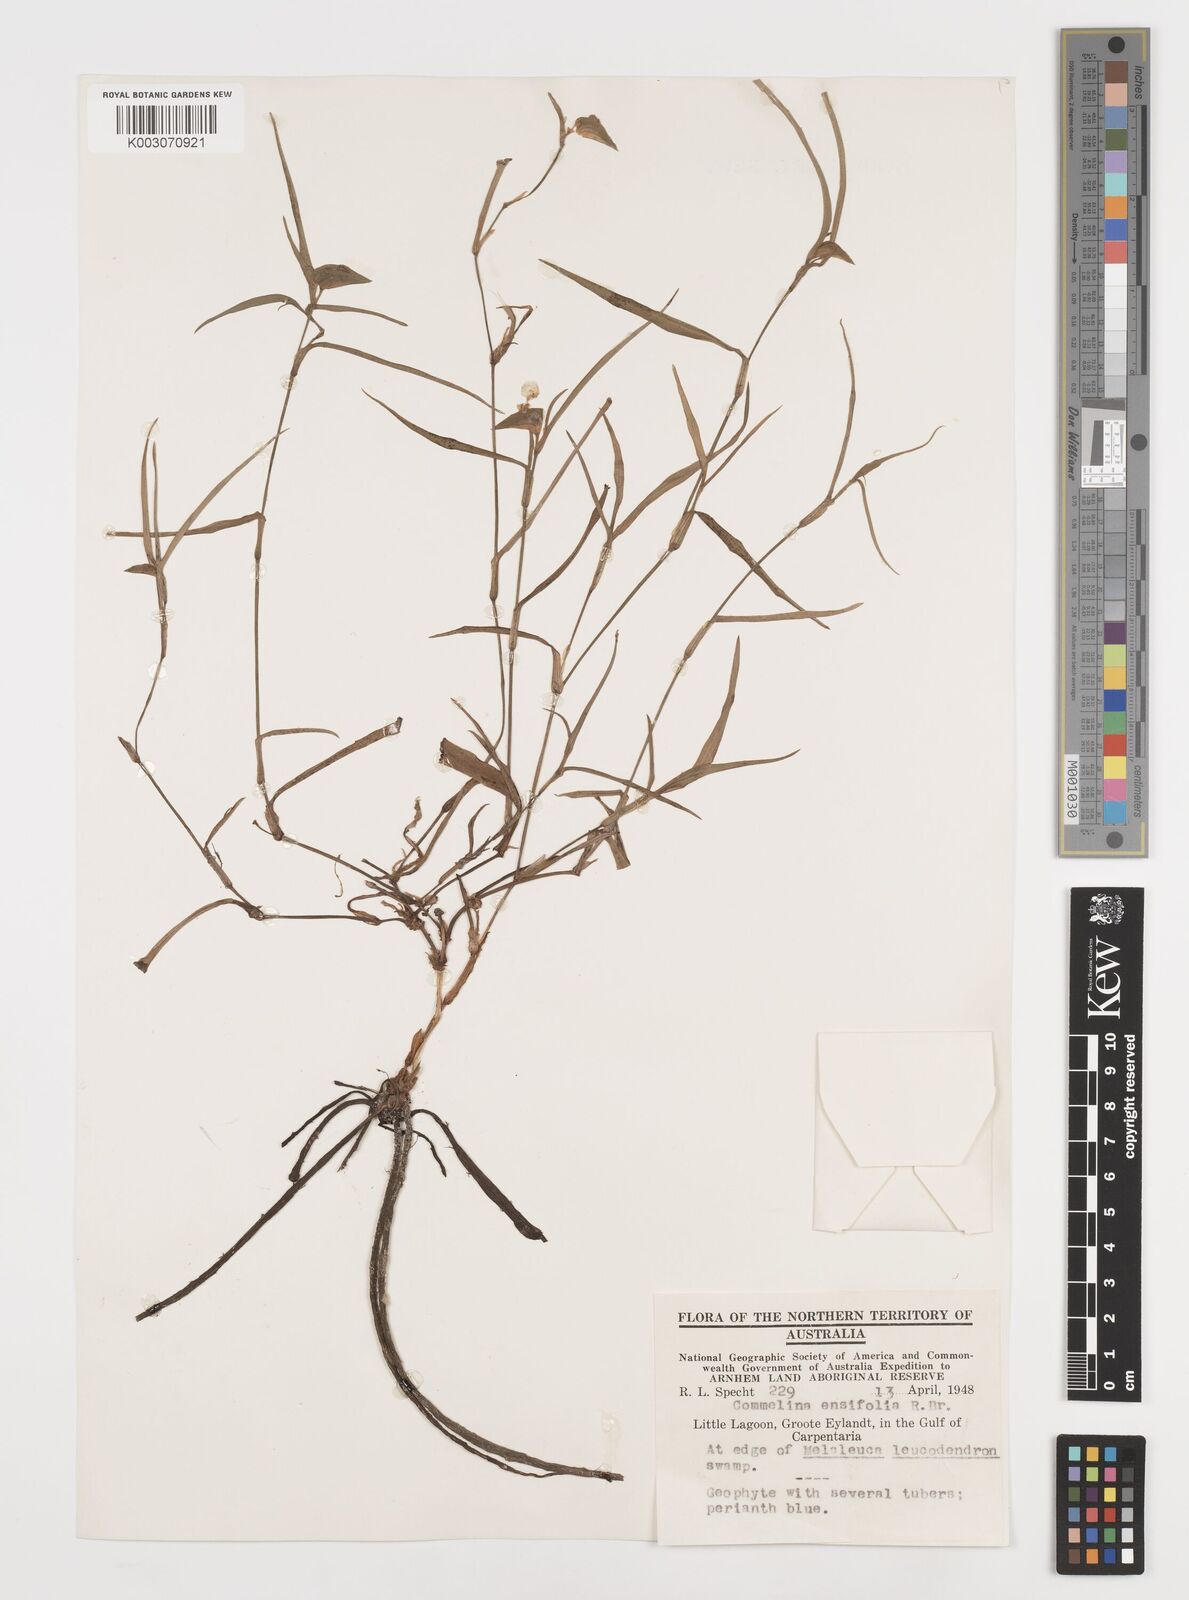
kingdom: Plantae
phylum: Tracheophyta
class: Liliopsida
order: Commelinales
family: Commelinaceae
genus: Commelina
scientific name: Commelina ensifolia
